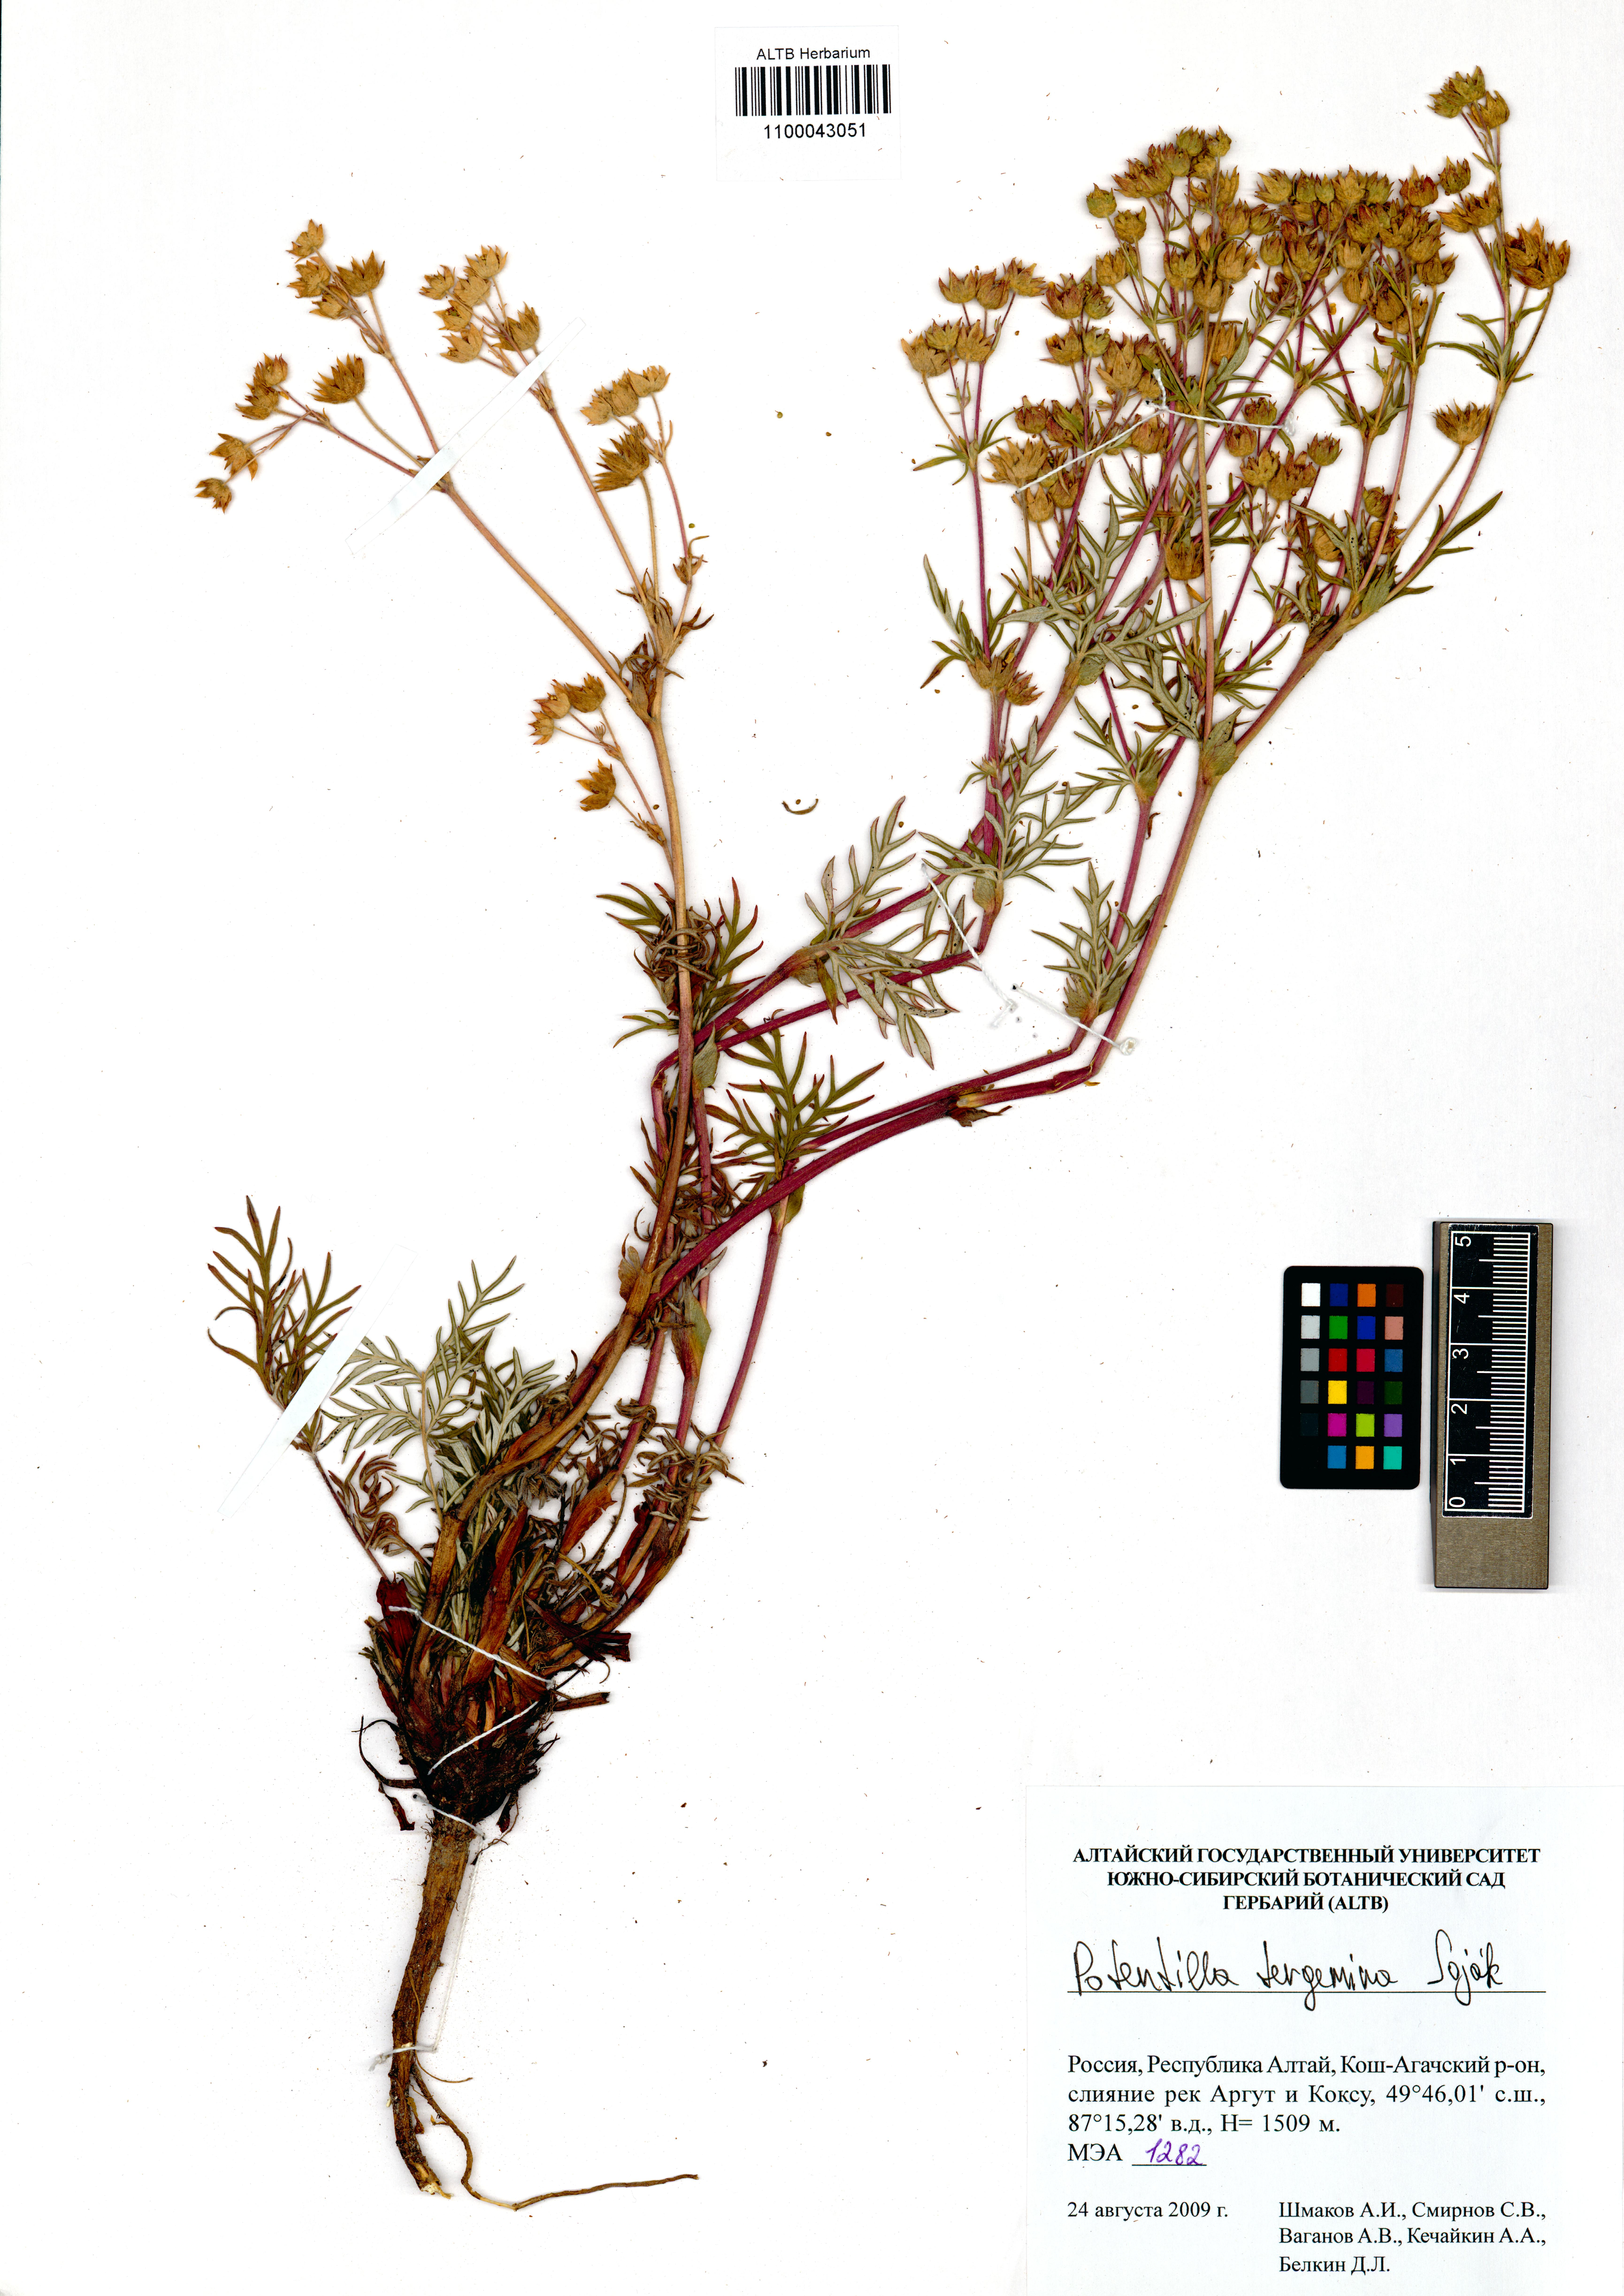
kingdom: Plantae
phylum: Tracheophyta
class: Magnoliopsida
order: Rosales
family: Rosaceae
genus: Potentilla
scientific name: Potentilla tergemina
